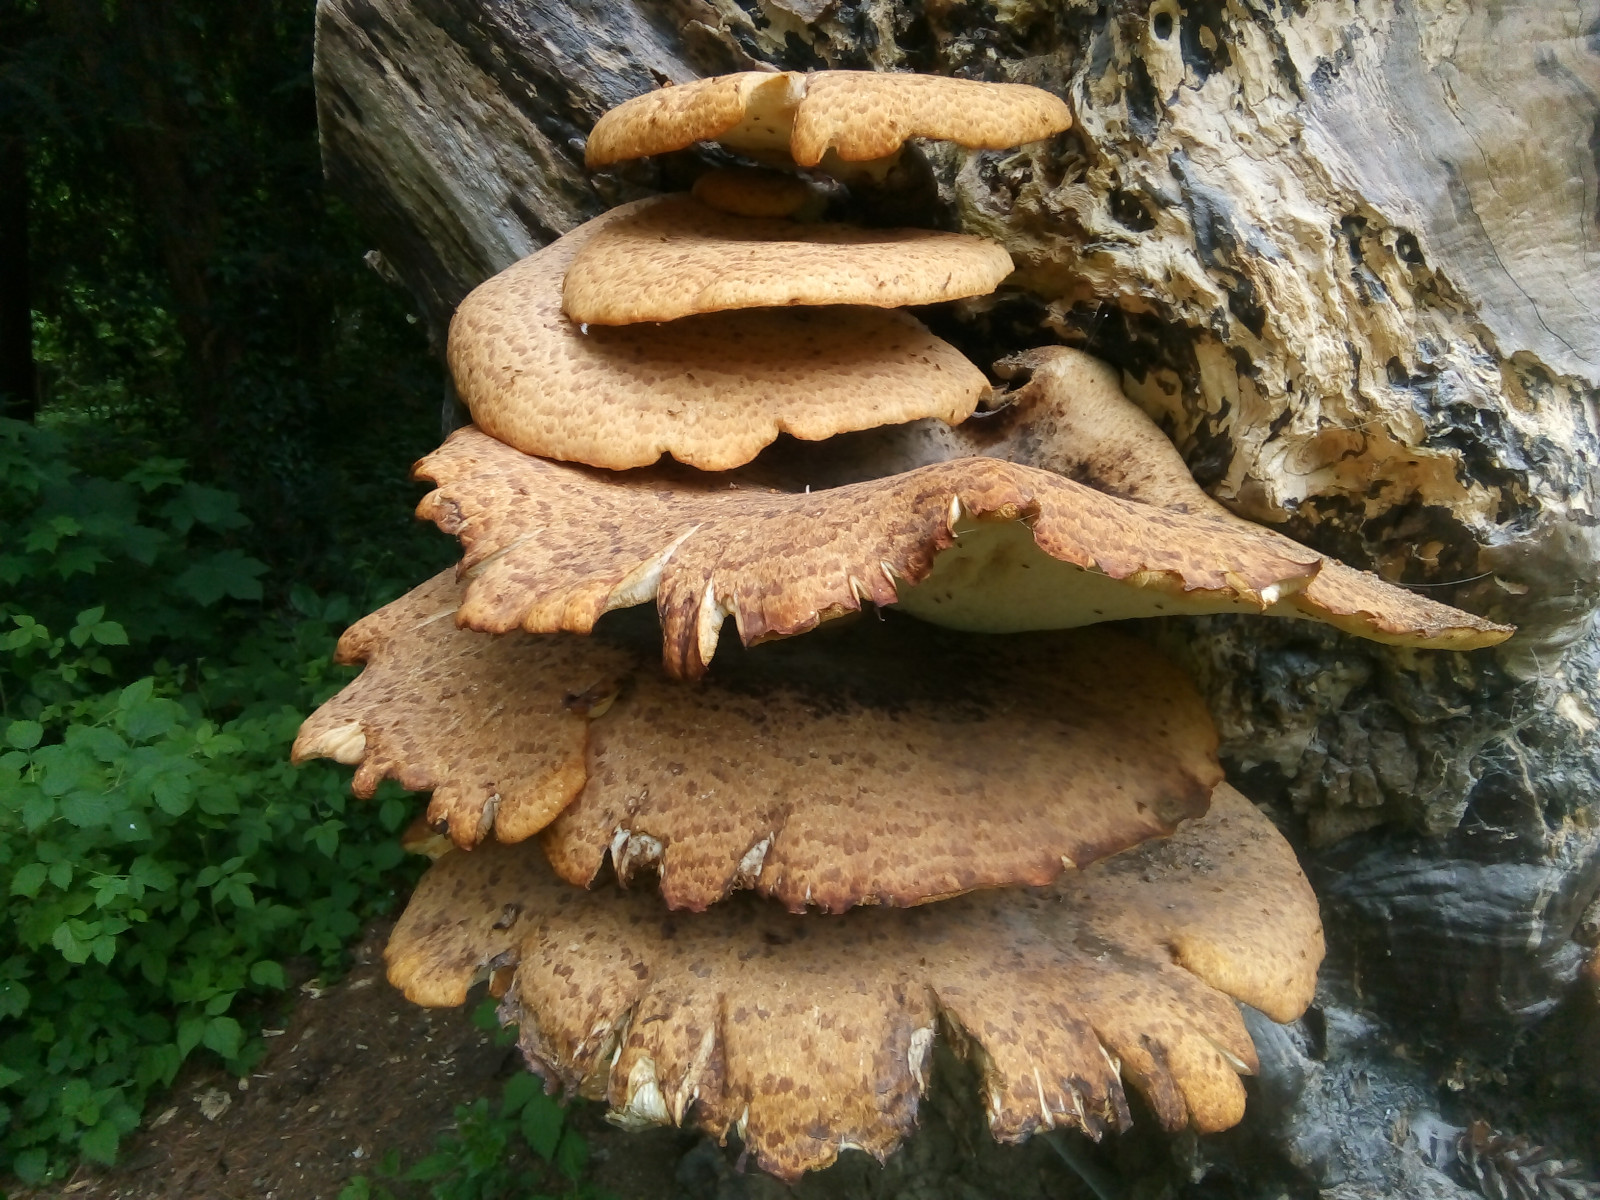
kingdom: Fungi
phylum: Basidiomycota
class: Agaricomycetes
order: Polyporales
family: Polyporaceae
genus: Cerioporus
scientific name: Cerioporus squamosus
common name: skællet stilkporesvamp
